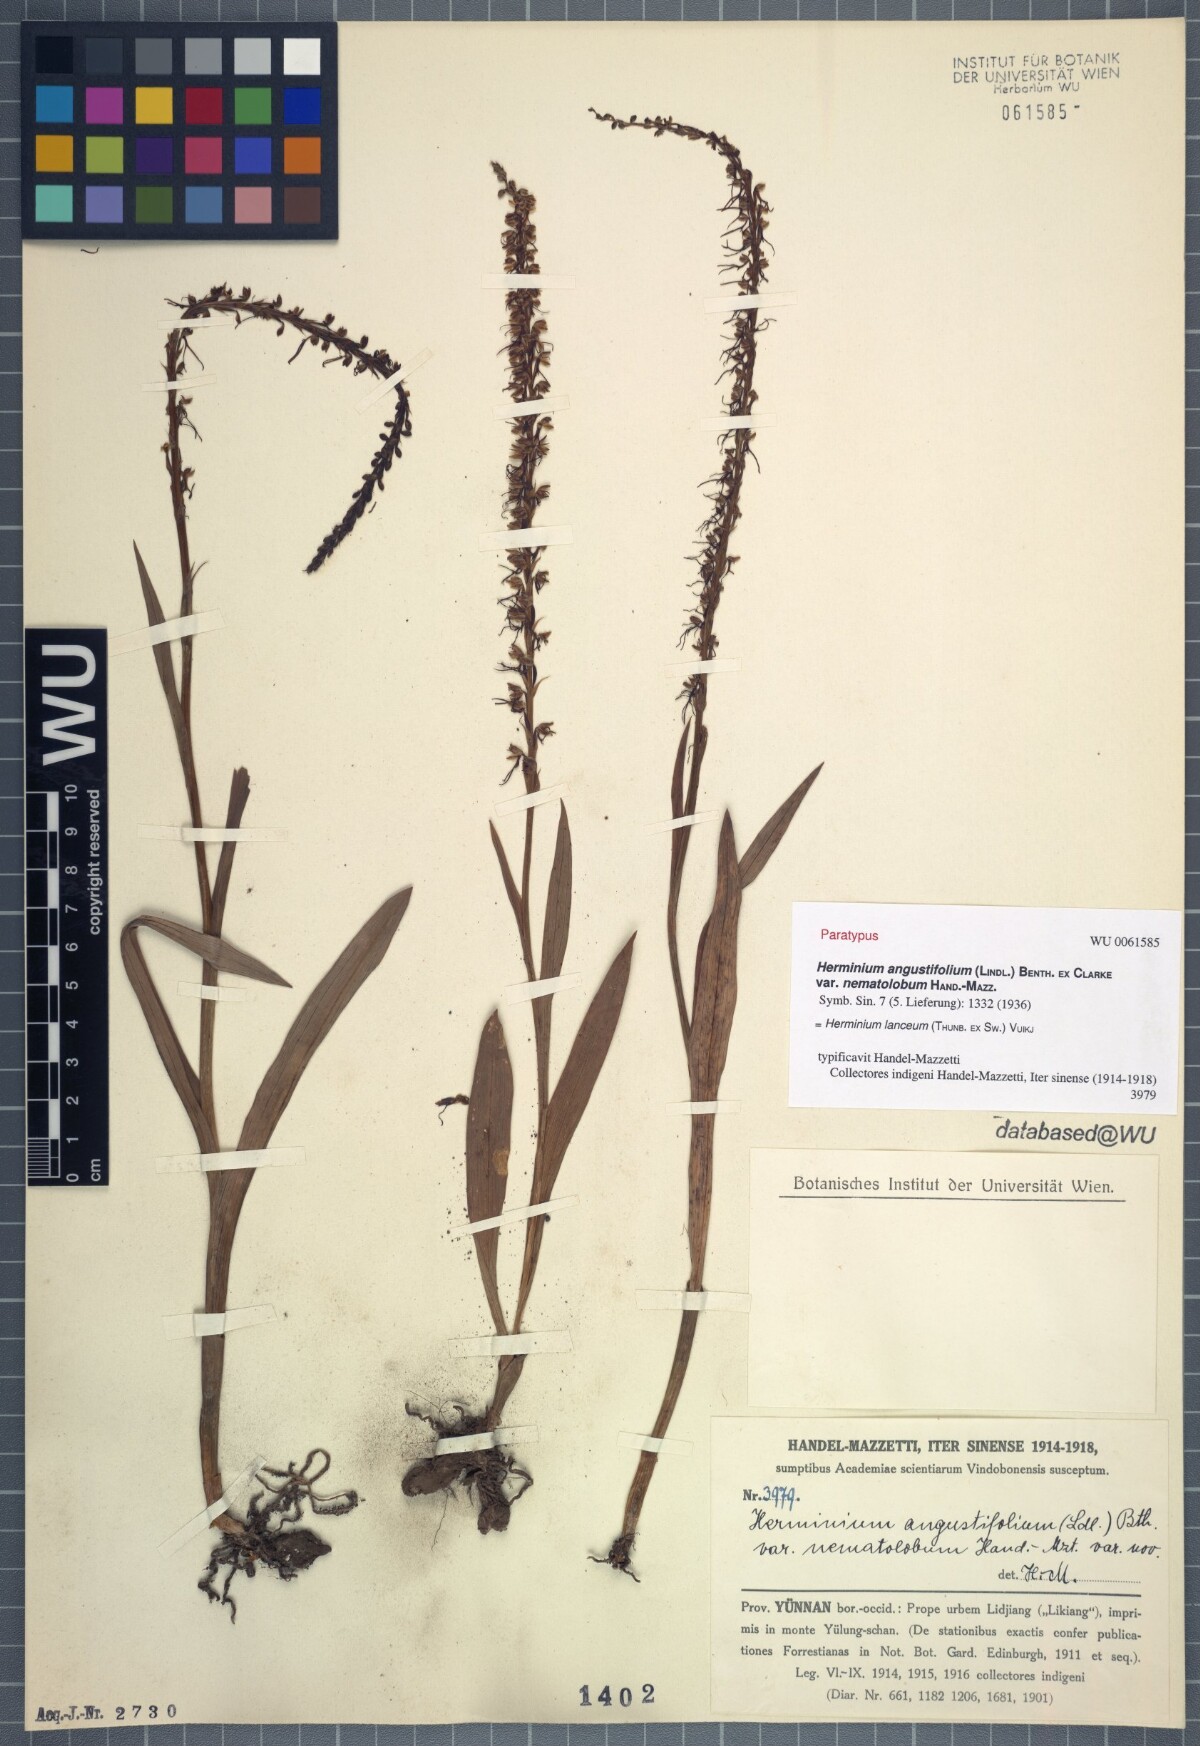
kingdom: Plantae
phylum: Tracheophyta
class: Liliopsida
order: Asparagales
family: Orchidaceae
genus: Herminium
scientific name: Herminium lanceum
